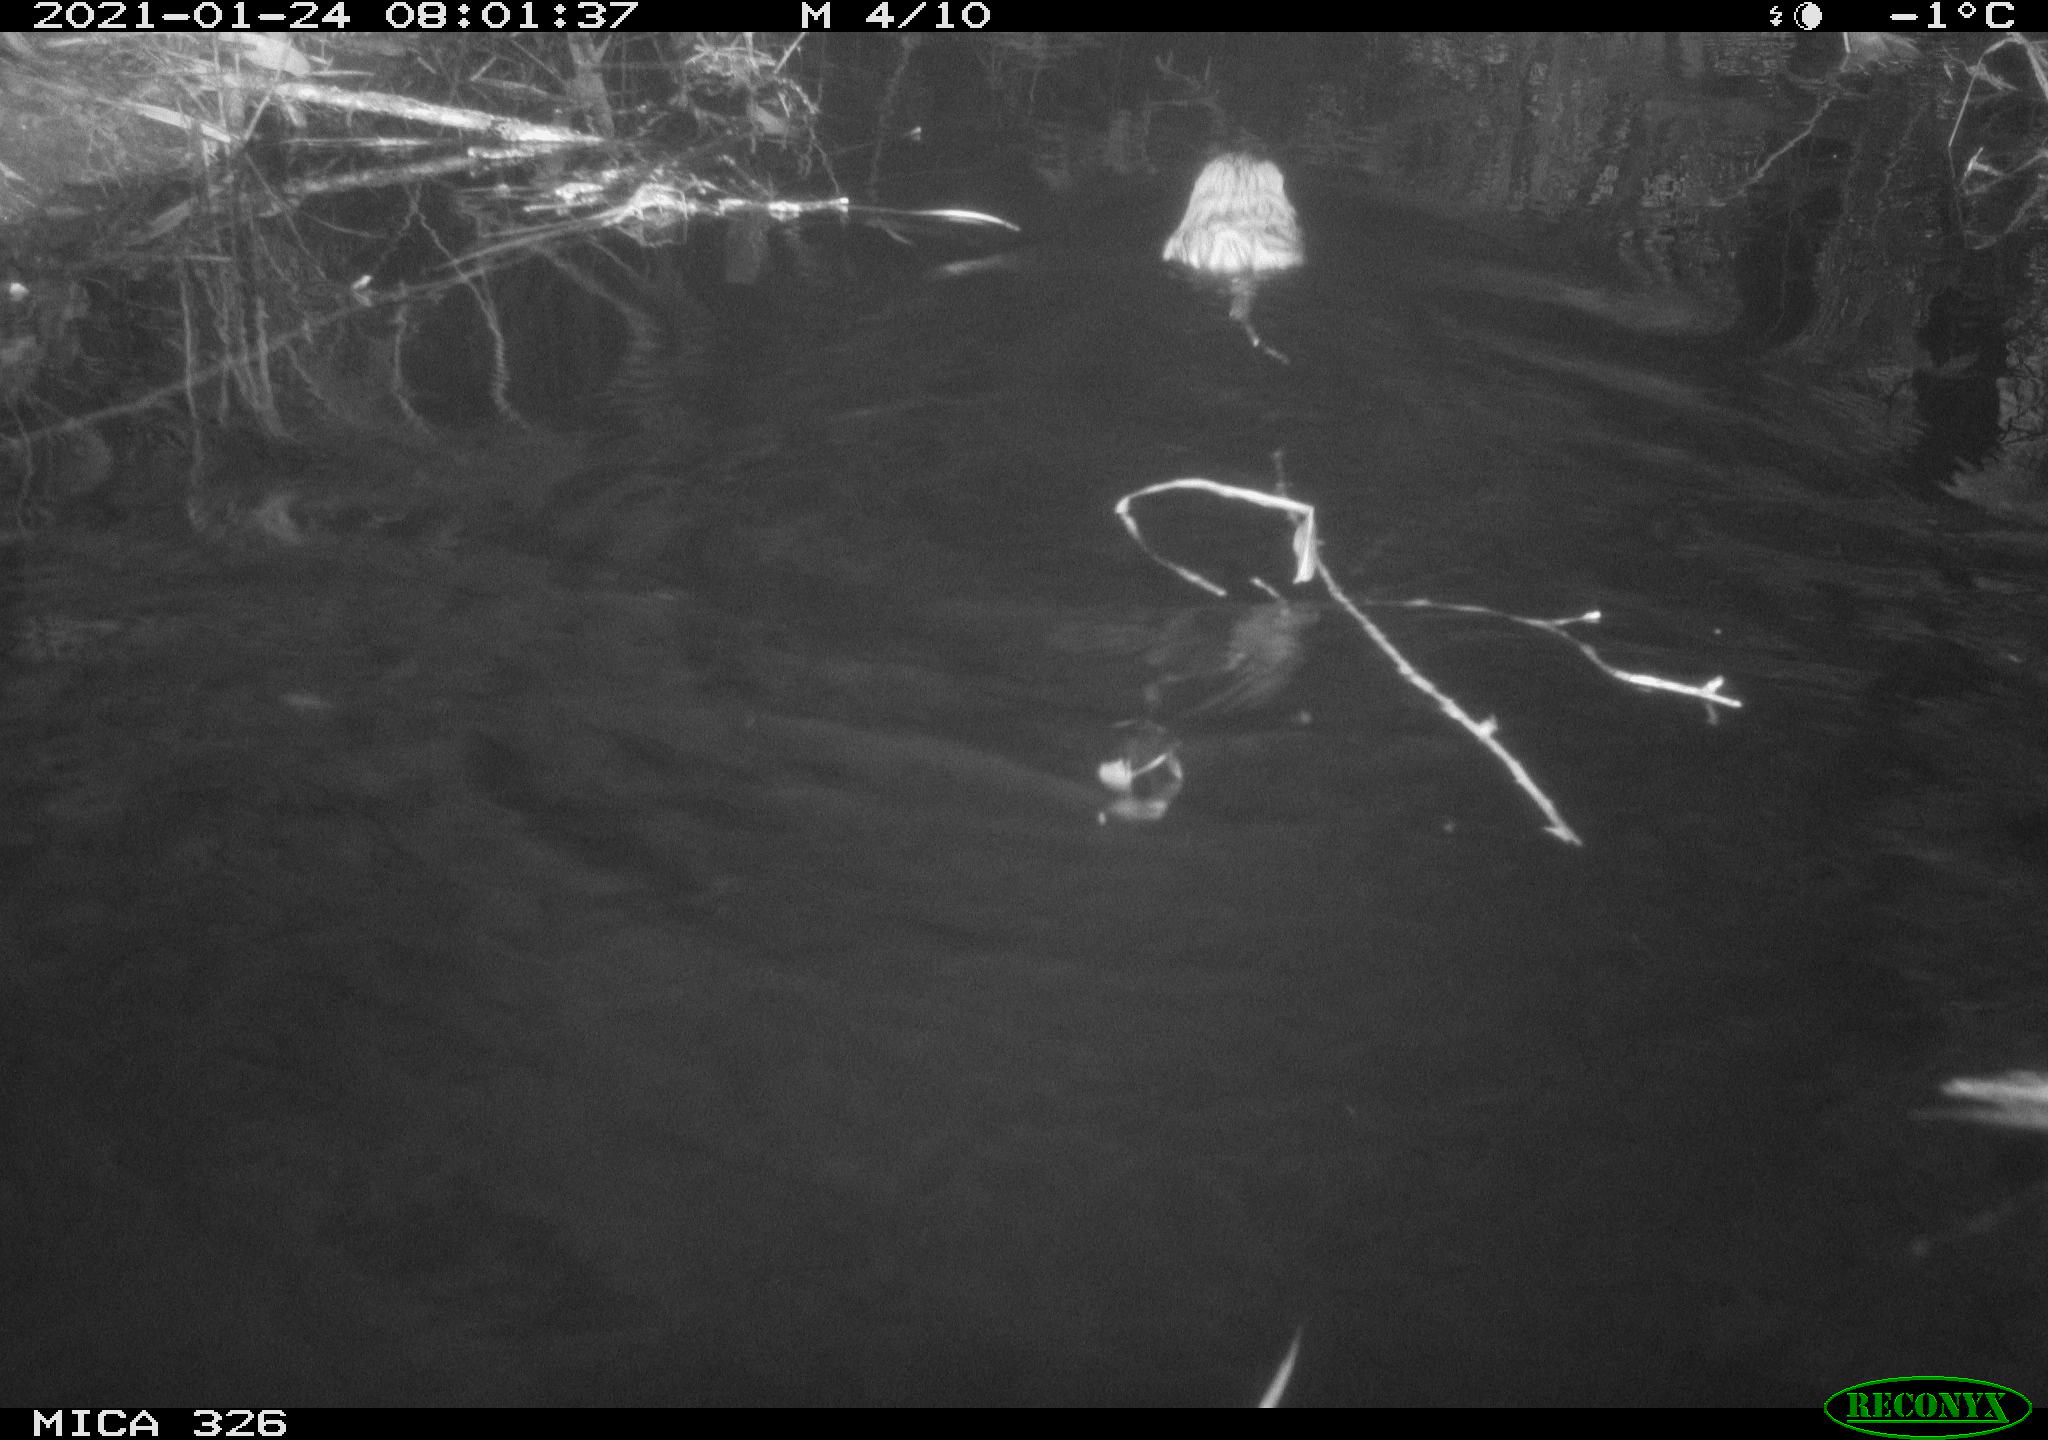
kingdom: Animalia
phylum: Chordata
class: Mammalia
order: Rodentia
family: Cricetidae
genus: Ondatra
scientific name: Ondatra zibethicus
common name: Muskrat
